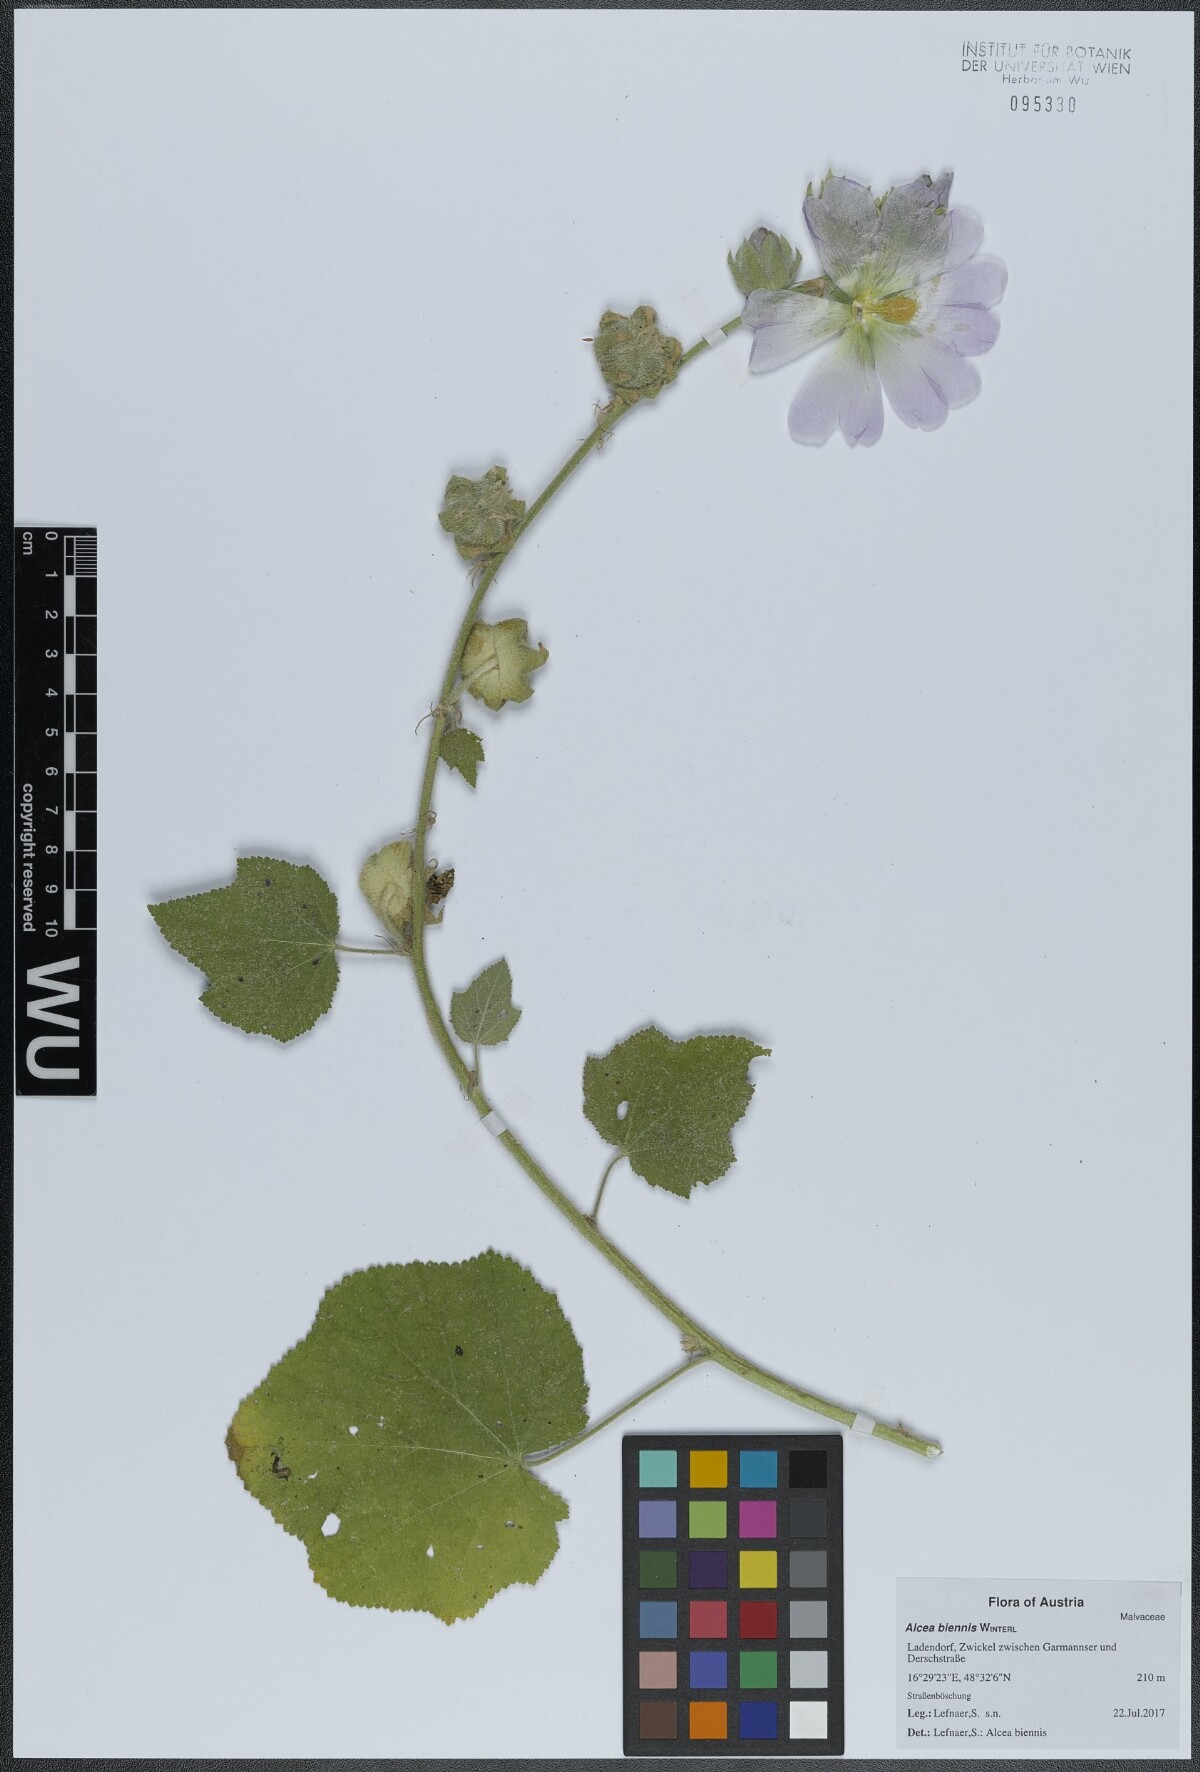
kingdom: Plantae
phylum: Tracheophyta
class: Magnoliopsida
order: Malvales
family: Malvaceae
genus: Alcea
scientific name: Alcea biennis
